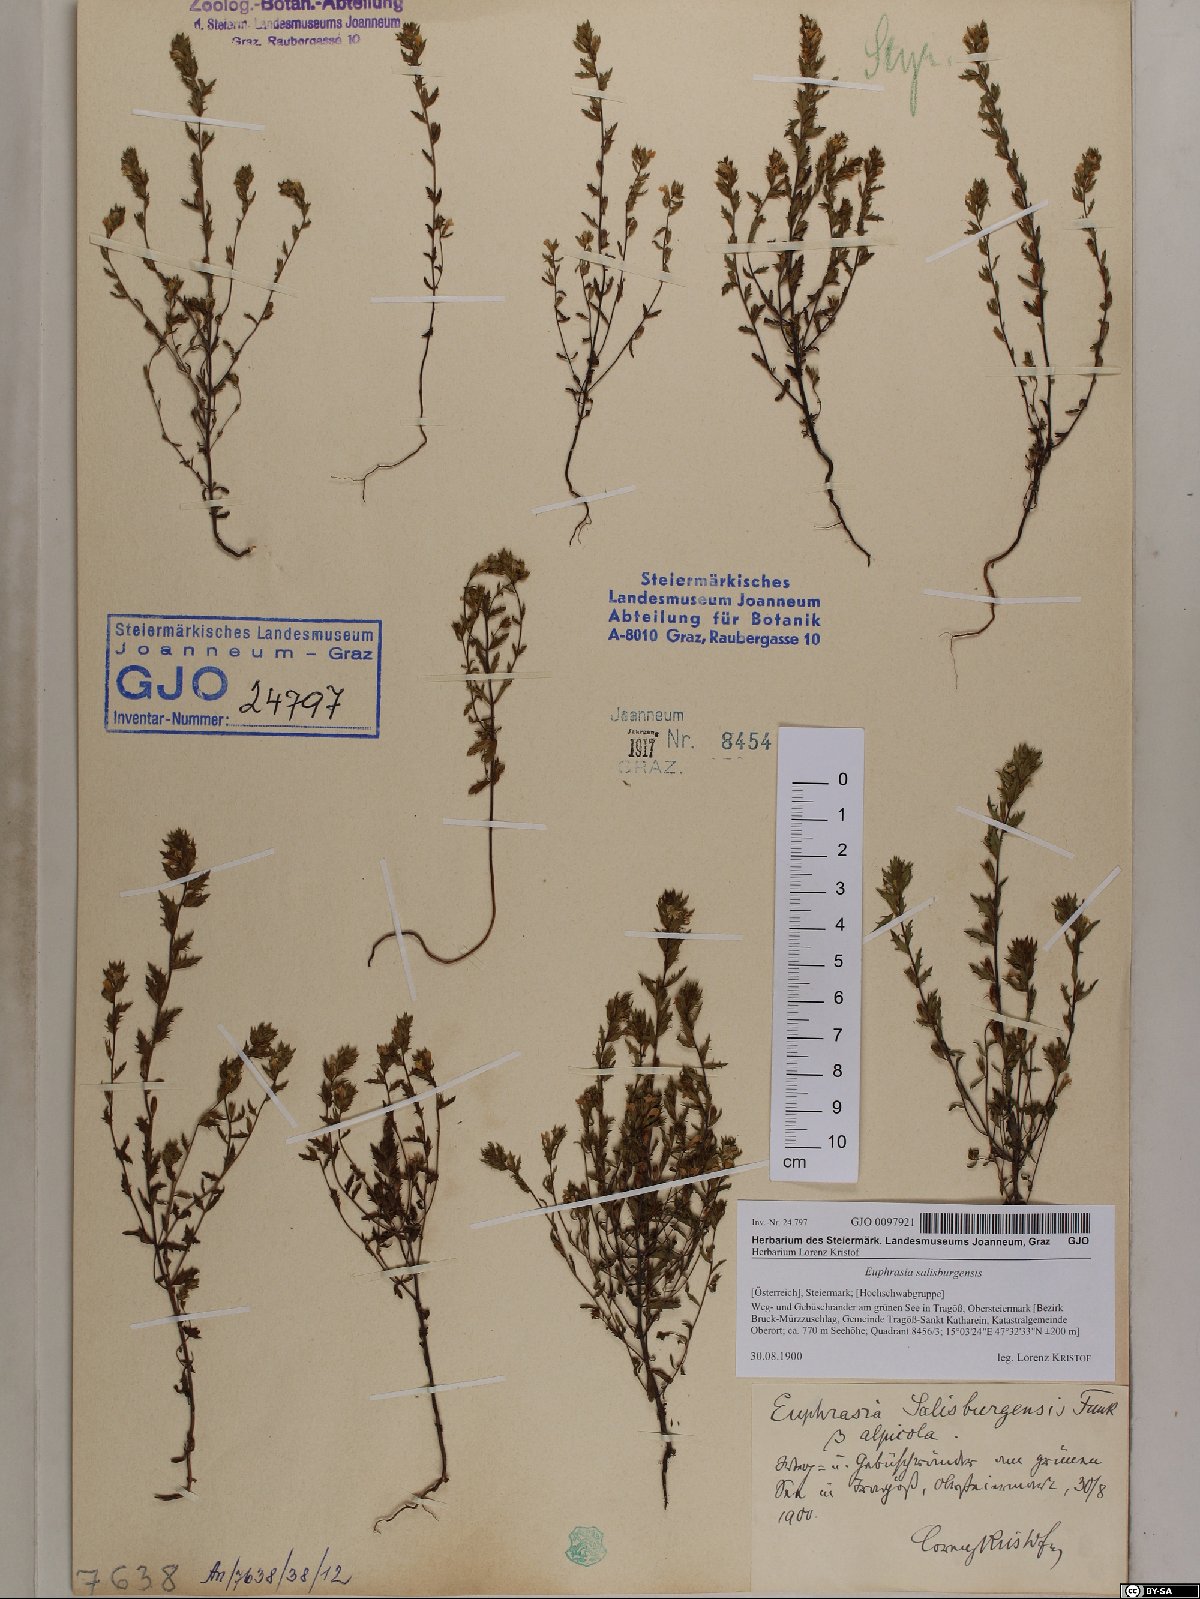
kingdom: Plantae
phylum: Tracheophyta
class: Magnoliopsida
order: Lamiales
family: Orobanchaceae
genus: Euphrasia
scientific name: Euphrasia salisburgensis
